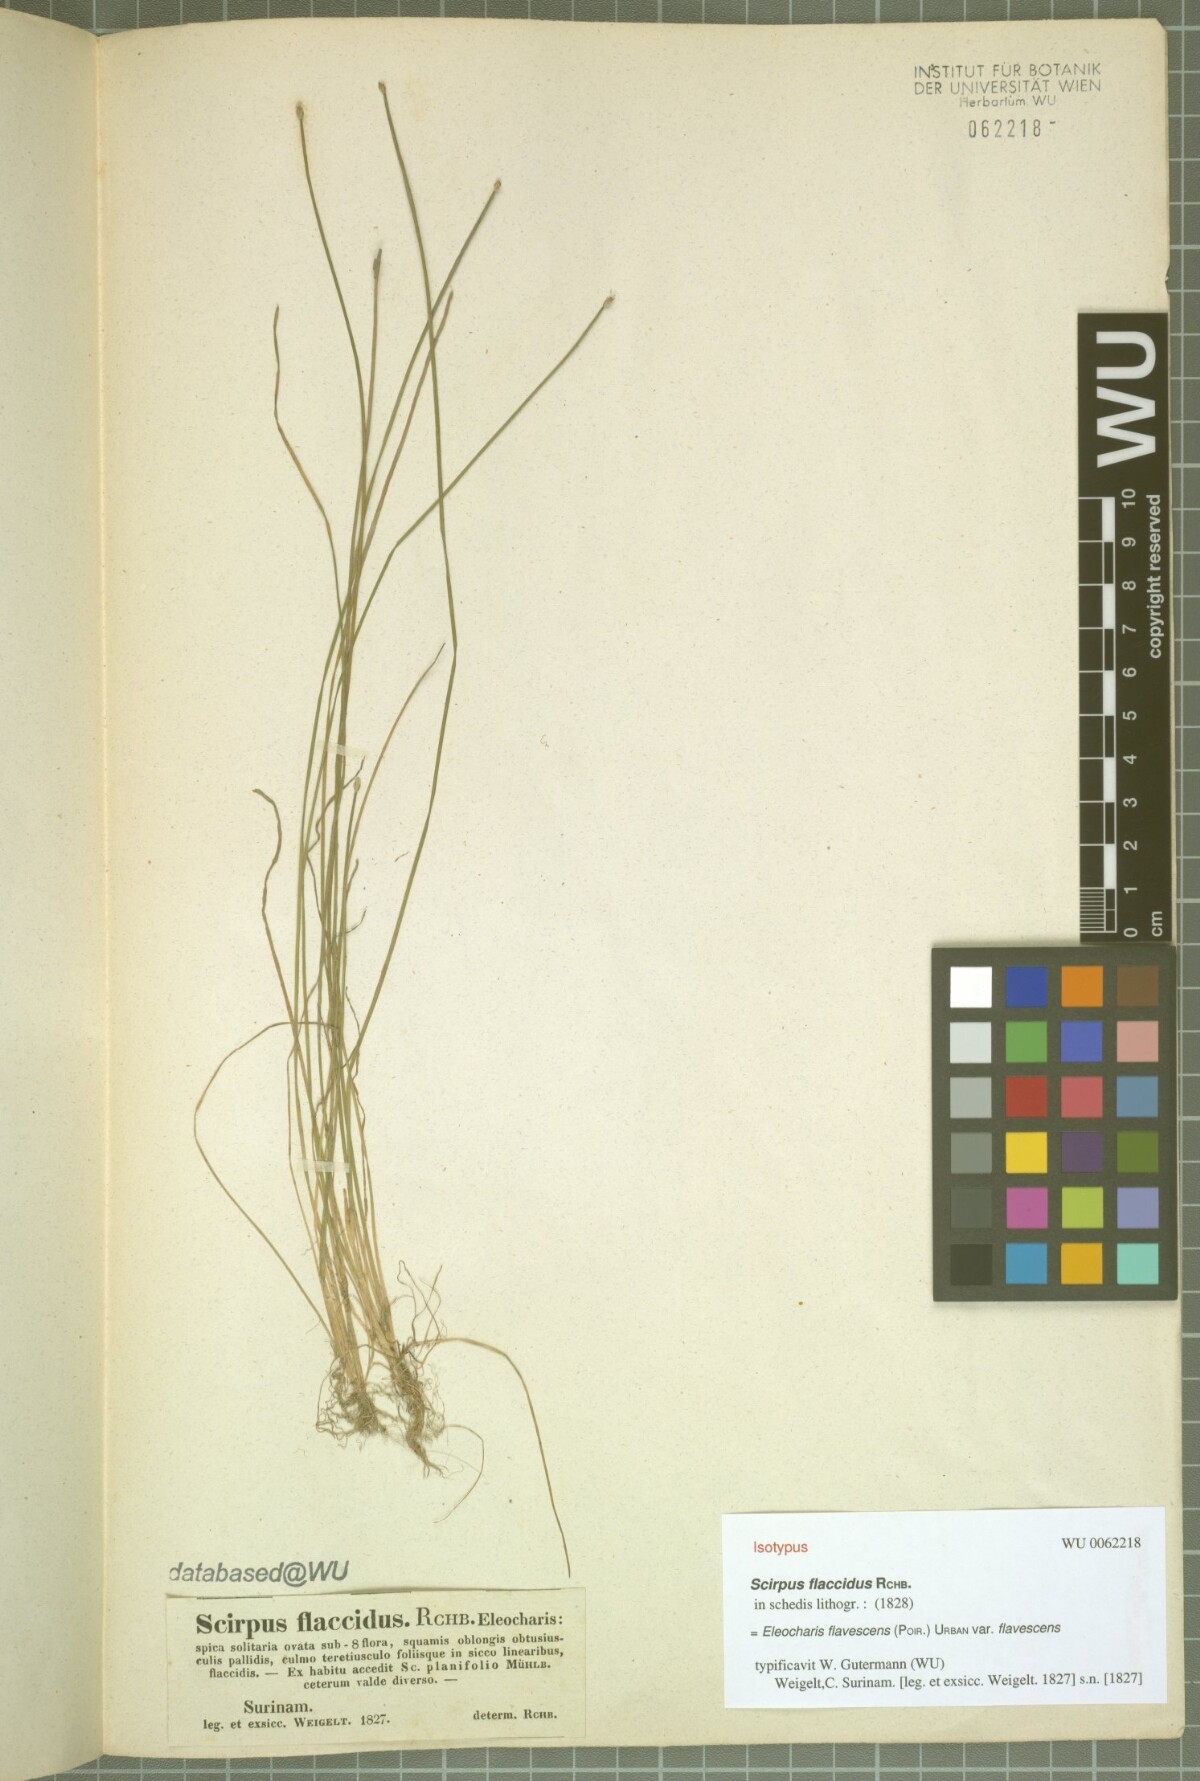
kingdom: Plantae
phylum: Tracheophyta
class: Liliopsida
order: Poales
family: Cyperaceae
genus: Eleocharis
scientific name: Eleocharis flavescens
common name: Yellow spikerush
